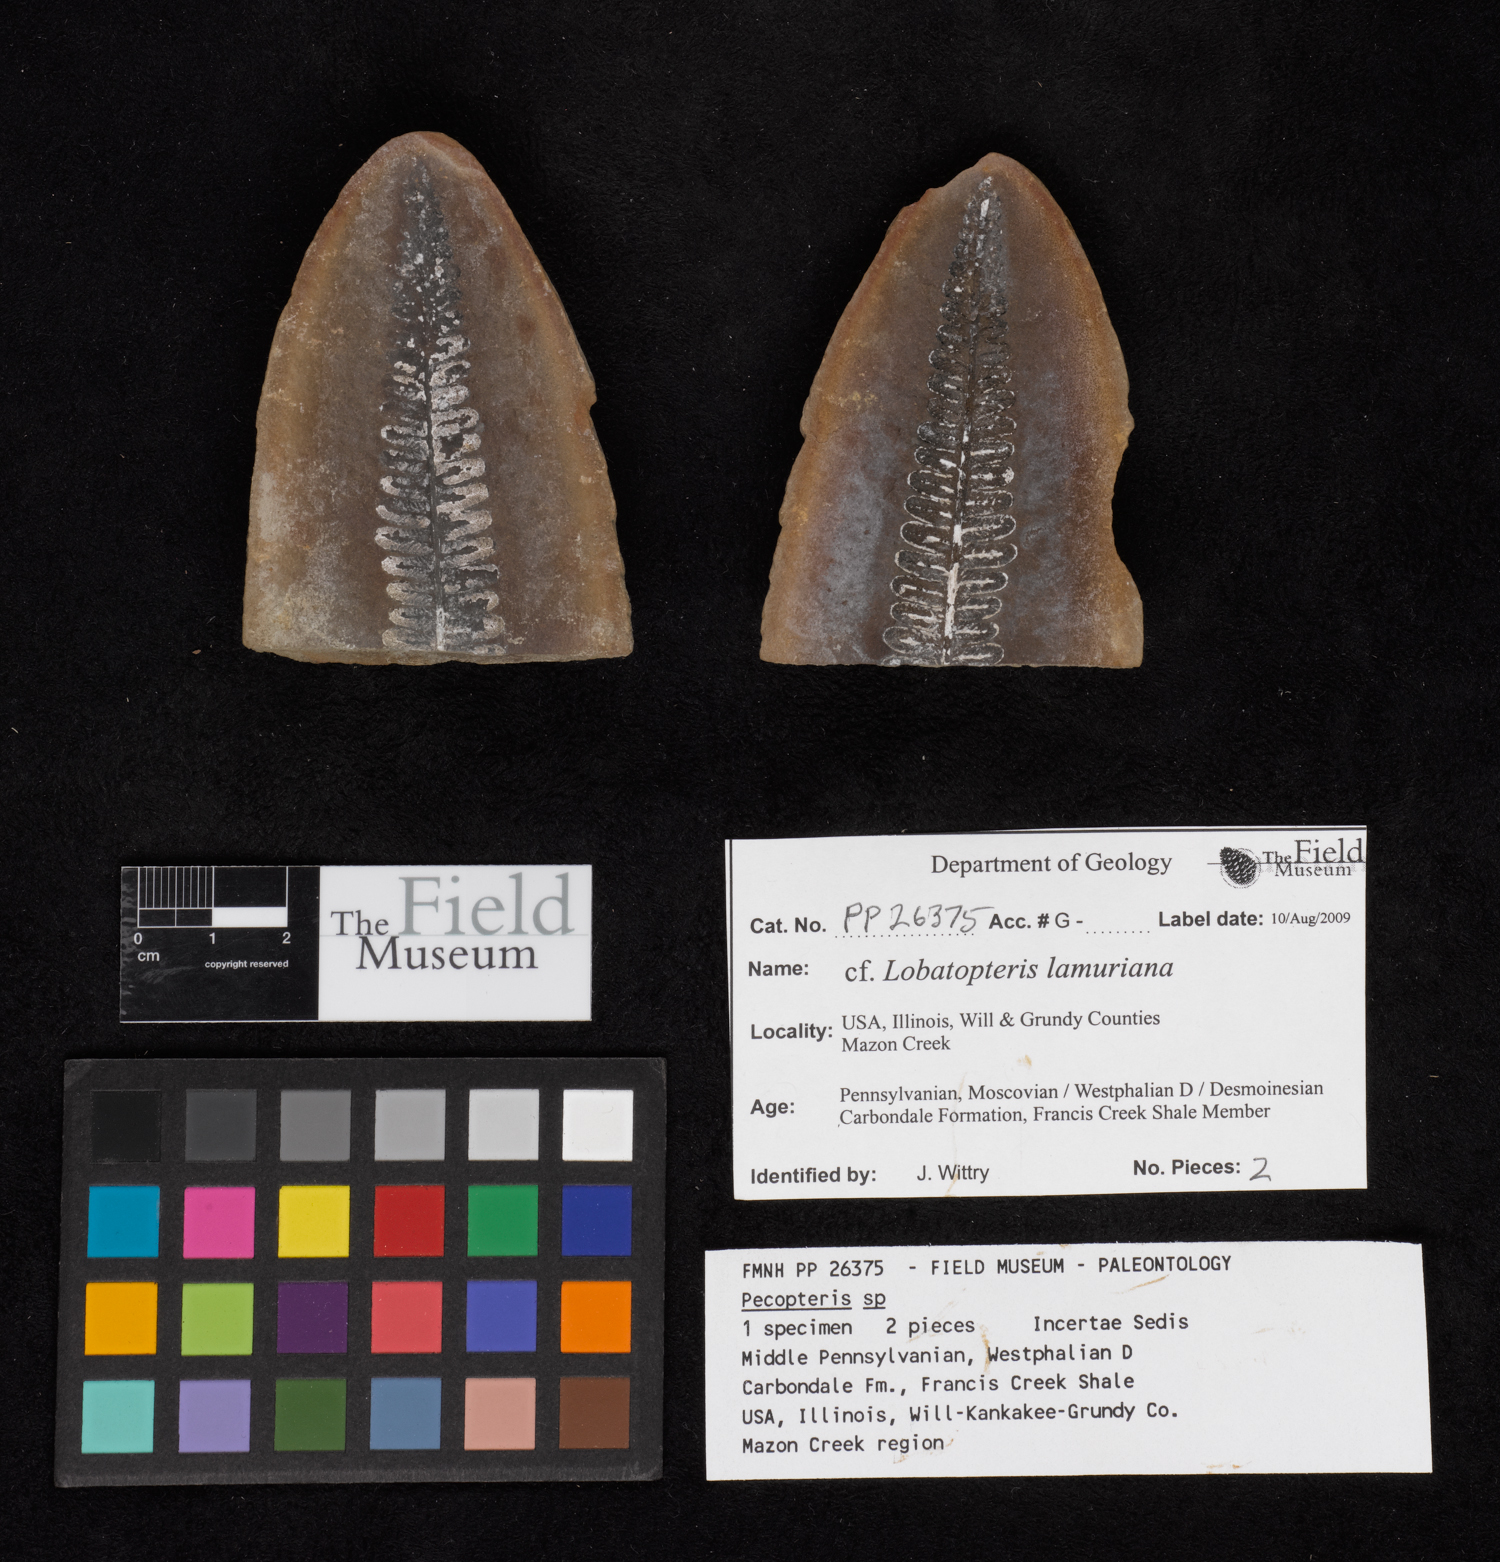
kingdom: Plantae
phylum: Tracheophyta
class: Polypodiopsida
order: Marattiales
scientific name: Marattiales
